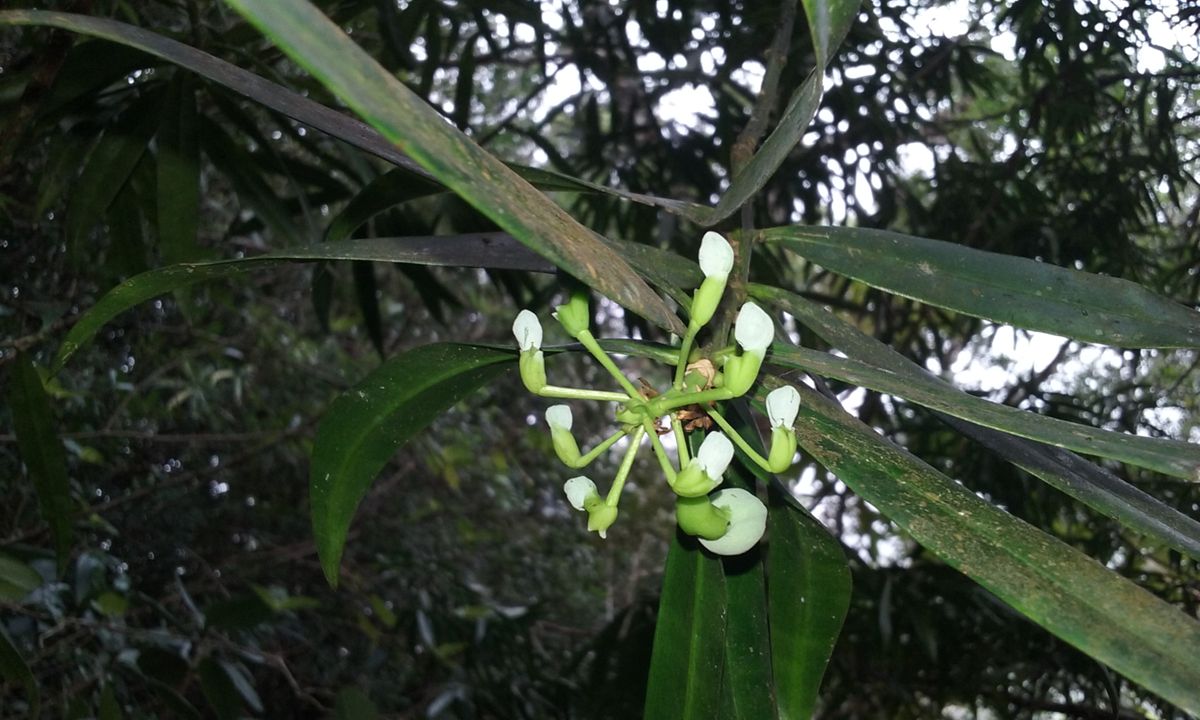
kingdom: Plantae
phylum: Tracheophyta
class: Pinopsida
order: Pinales
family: Podocarpaceae
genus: Podocarpus
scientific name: Podocarpus oleifolius
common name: Olive-leaf podoberry
